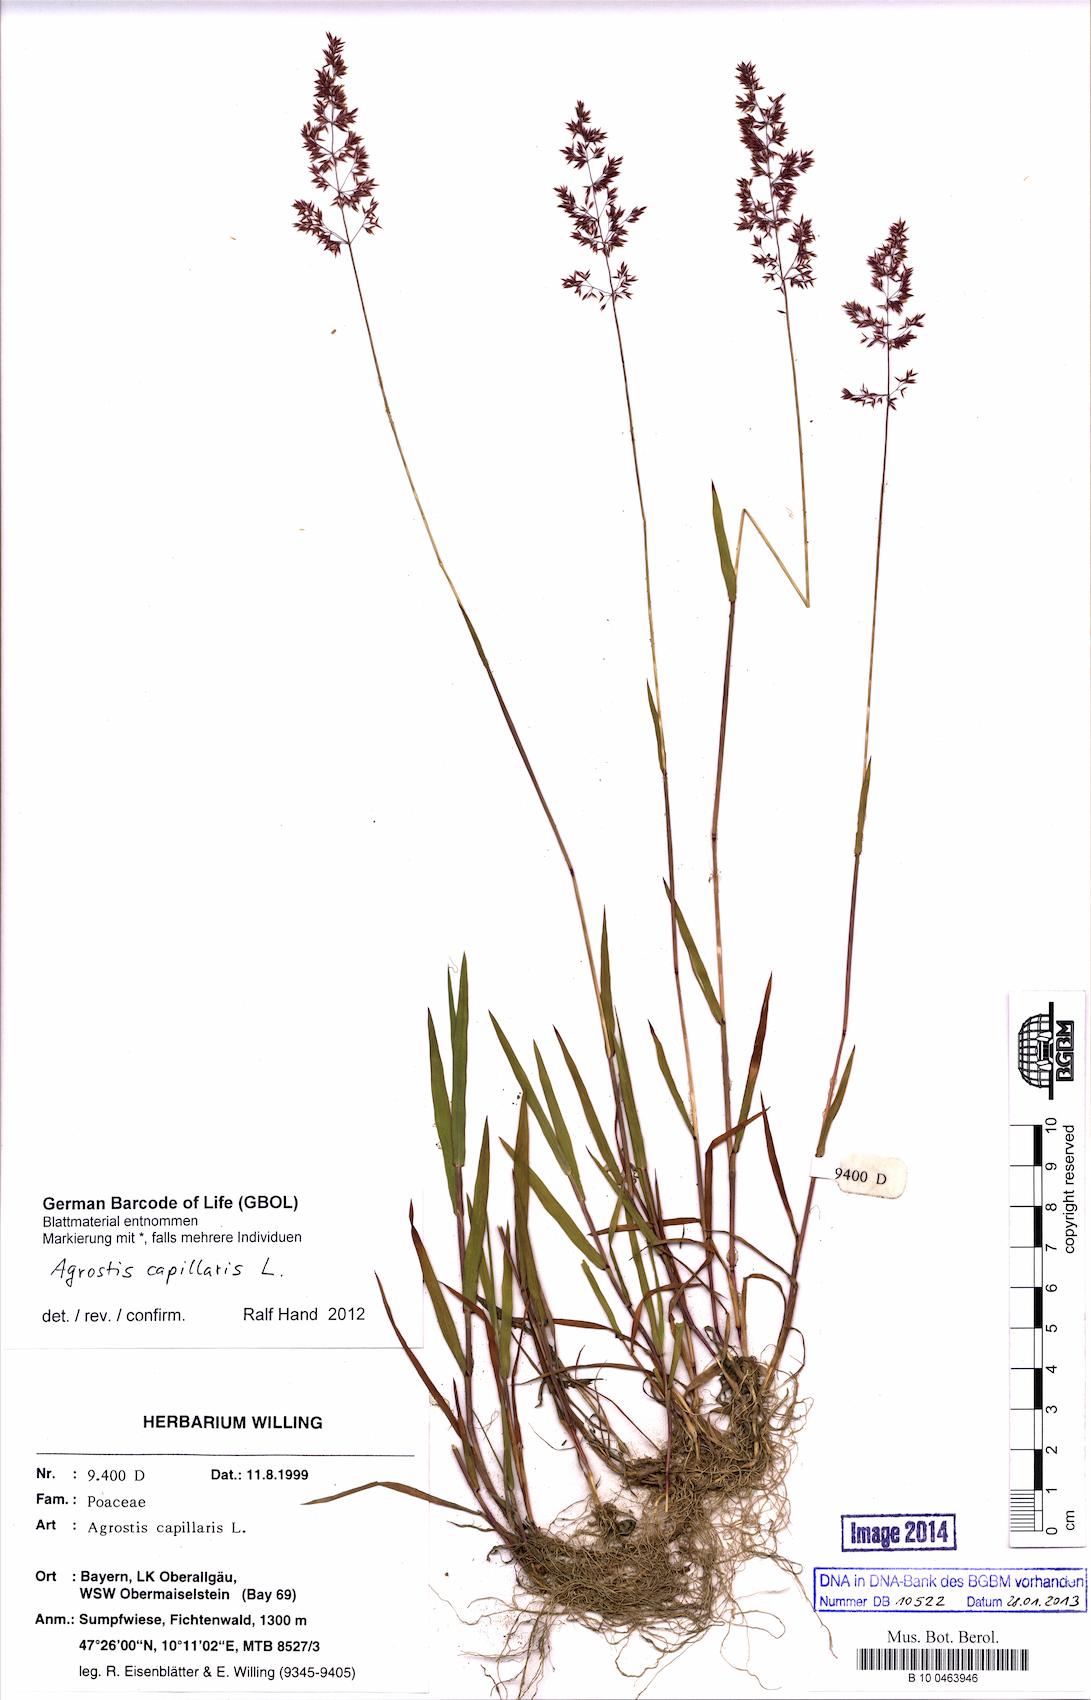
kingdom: Plantae
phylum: Tracheophyta
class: Liliopsida
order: Poales
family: Poaceae
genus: Agrostis
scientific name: Agrostis capillaris
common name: Colonial bentgrass
